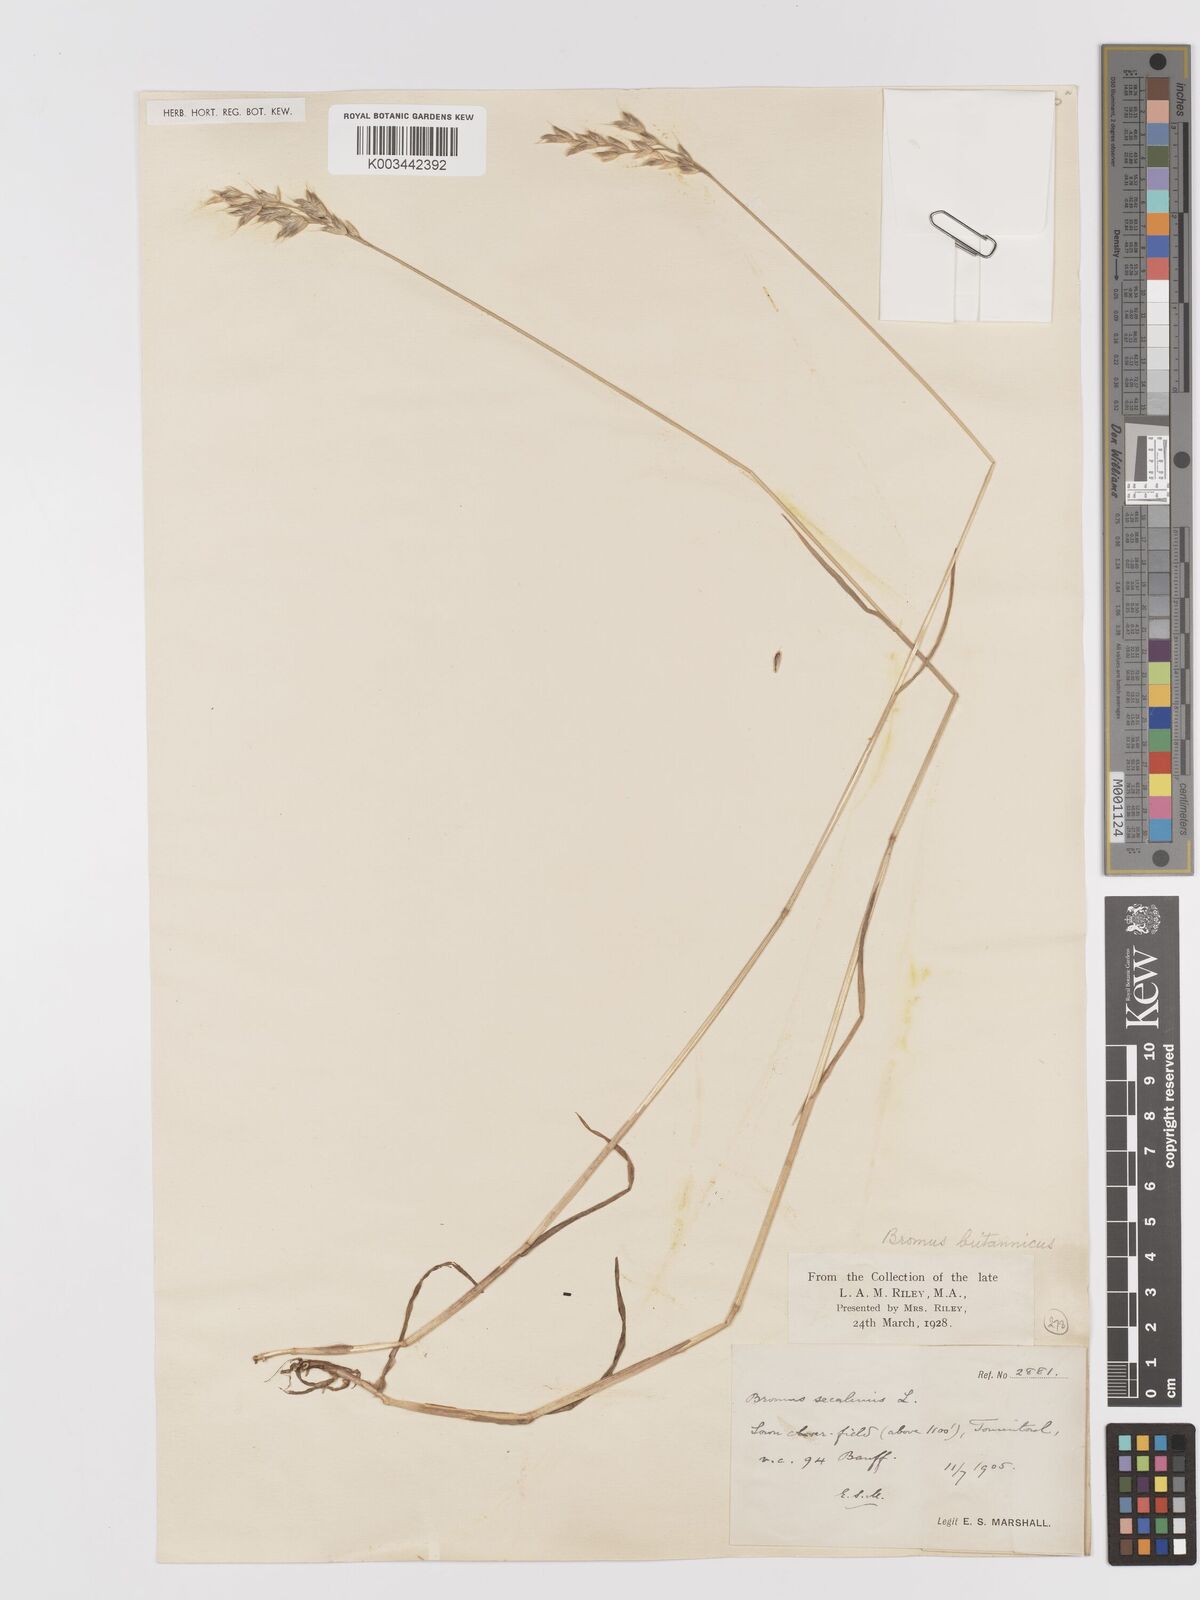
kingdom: Plantae
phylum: Tracheophyta
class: Liliopsida
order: Poales
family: Poaceae
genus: Bromus
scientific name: Bromus lepidus
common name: Slender soft-brome
